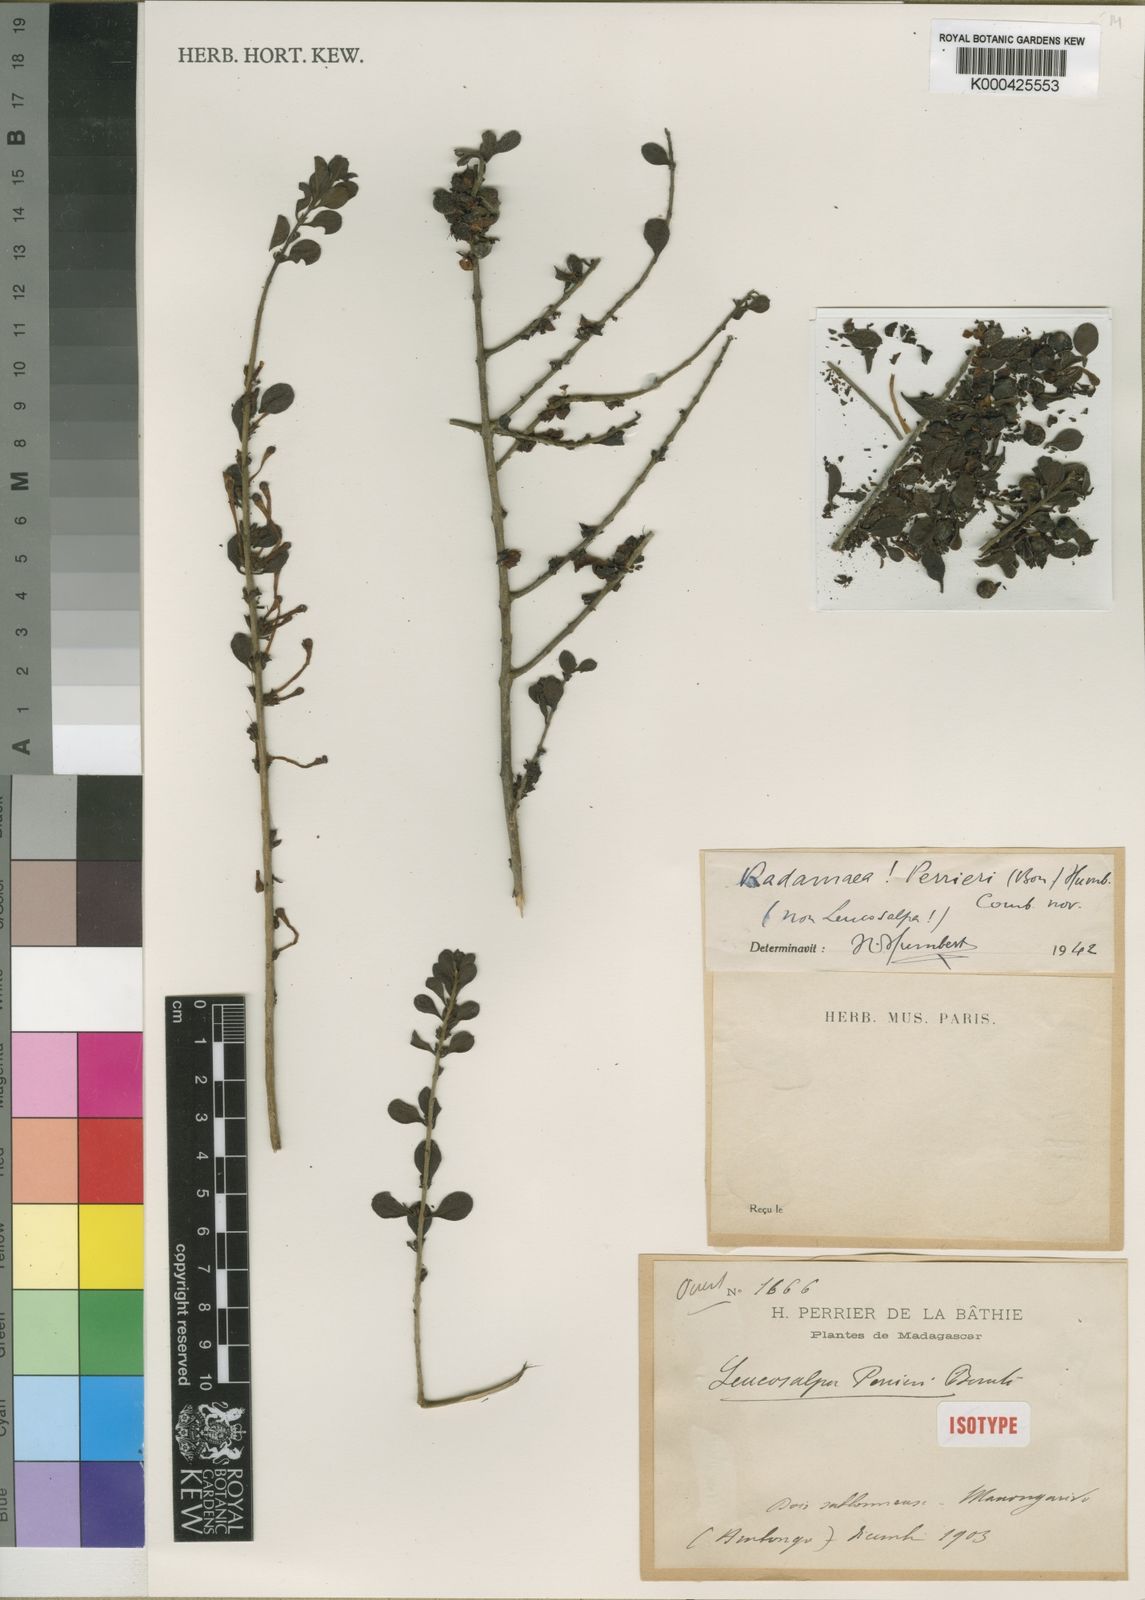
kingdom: Plantae
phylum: Tracheophyta
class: Magnoliopsida
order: Lamiales
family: Orobanchaceae
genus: Radamaea
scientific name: Radamaea perrieri
